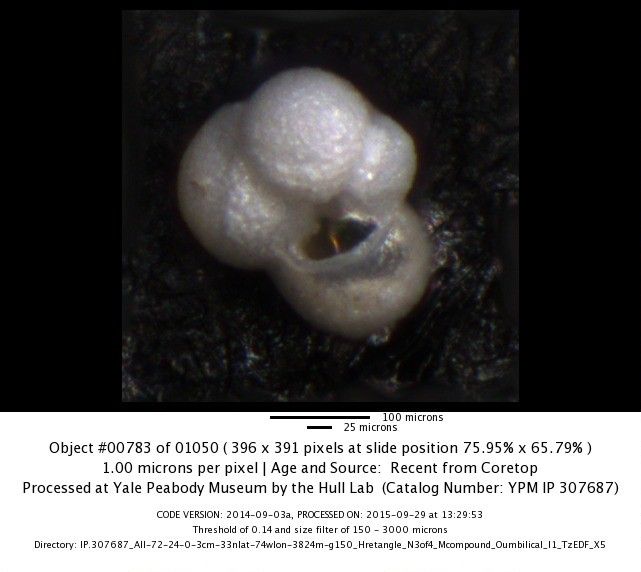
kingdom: Chromista
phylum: Foraminifera
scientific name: Foraminifera
